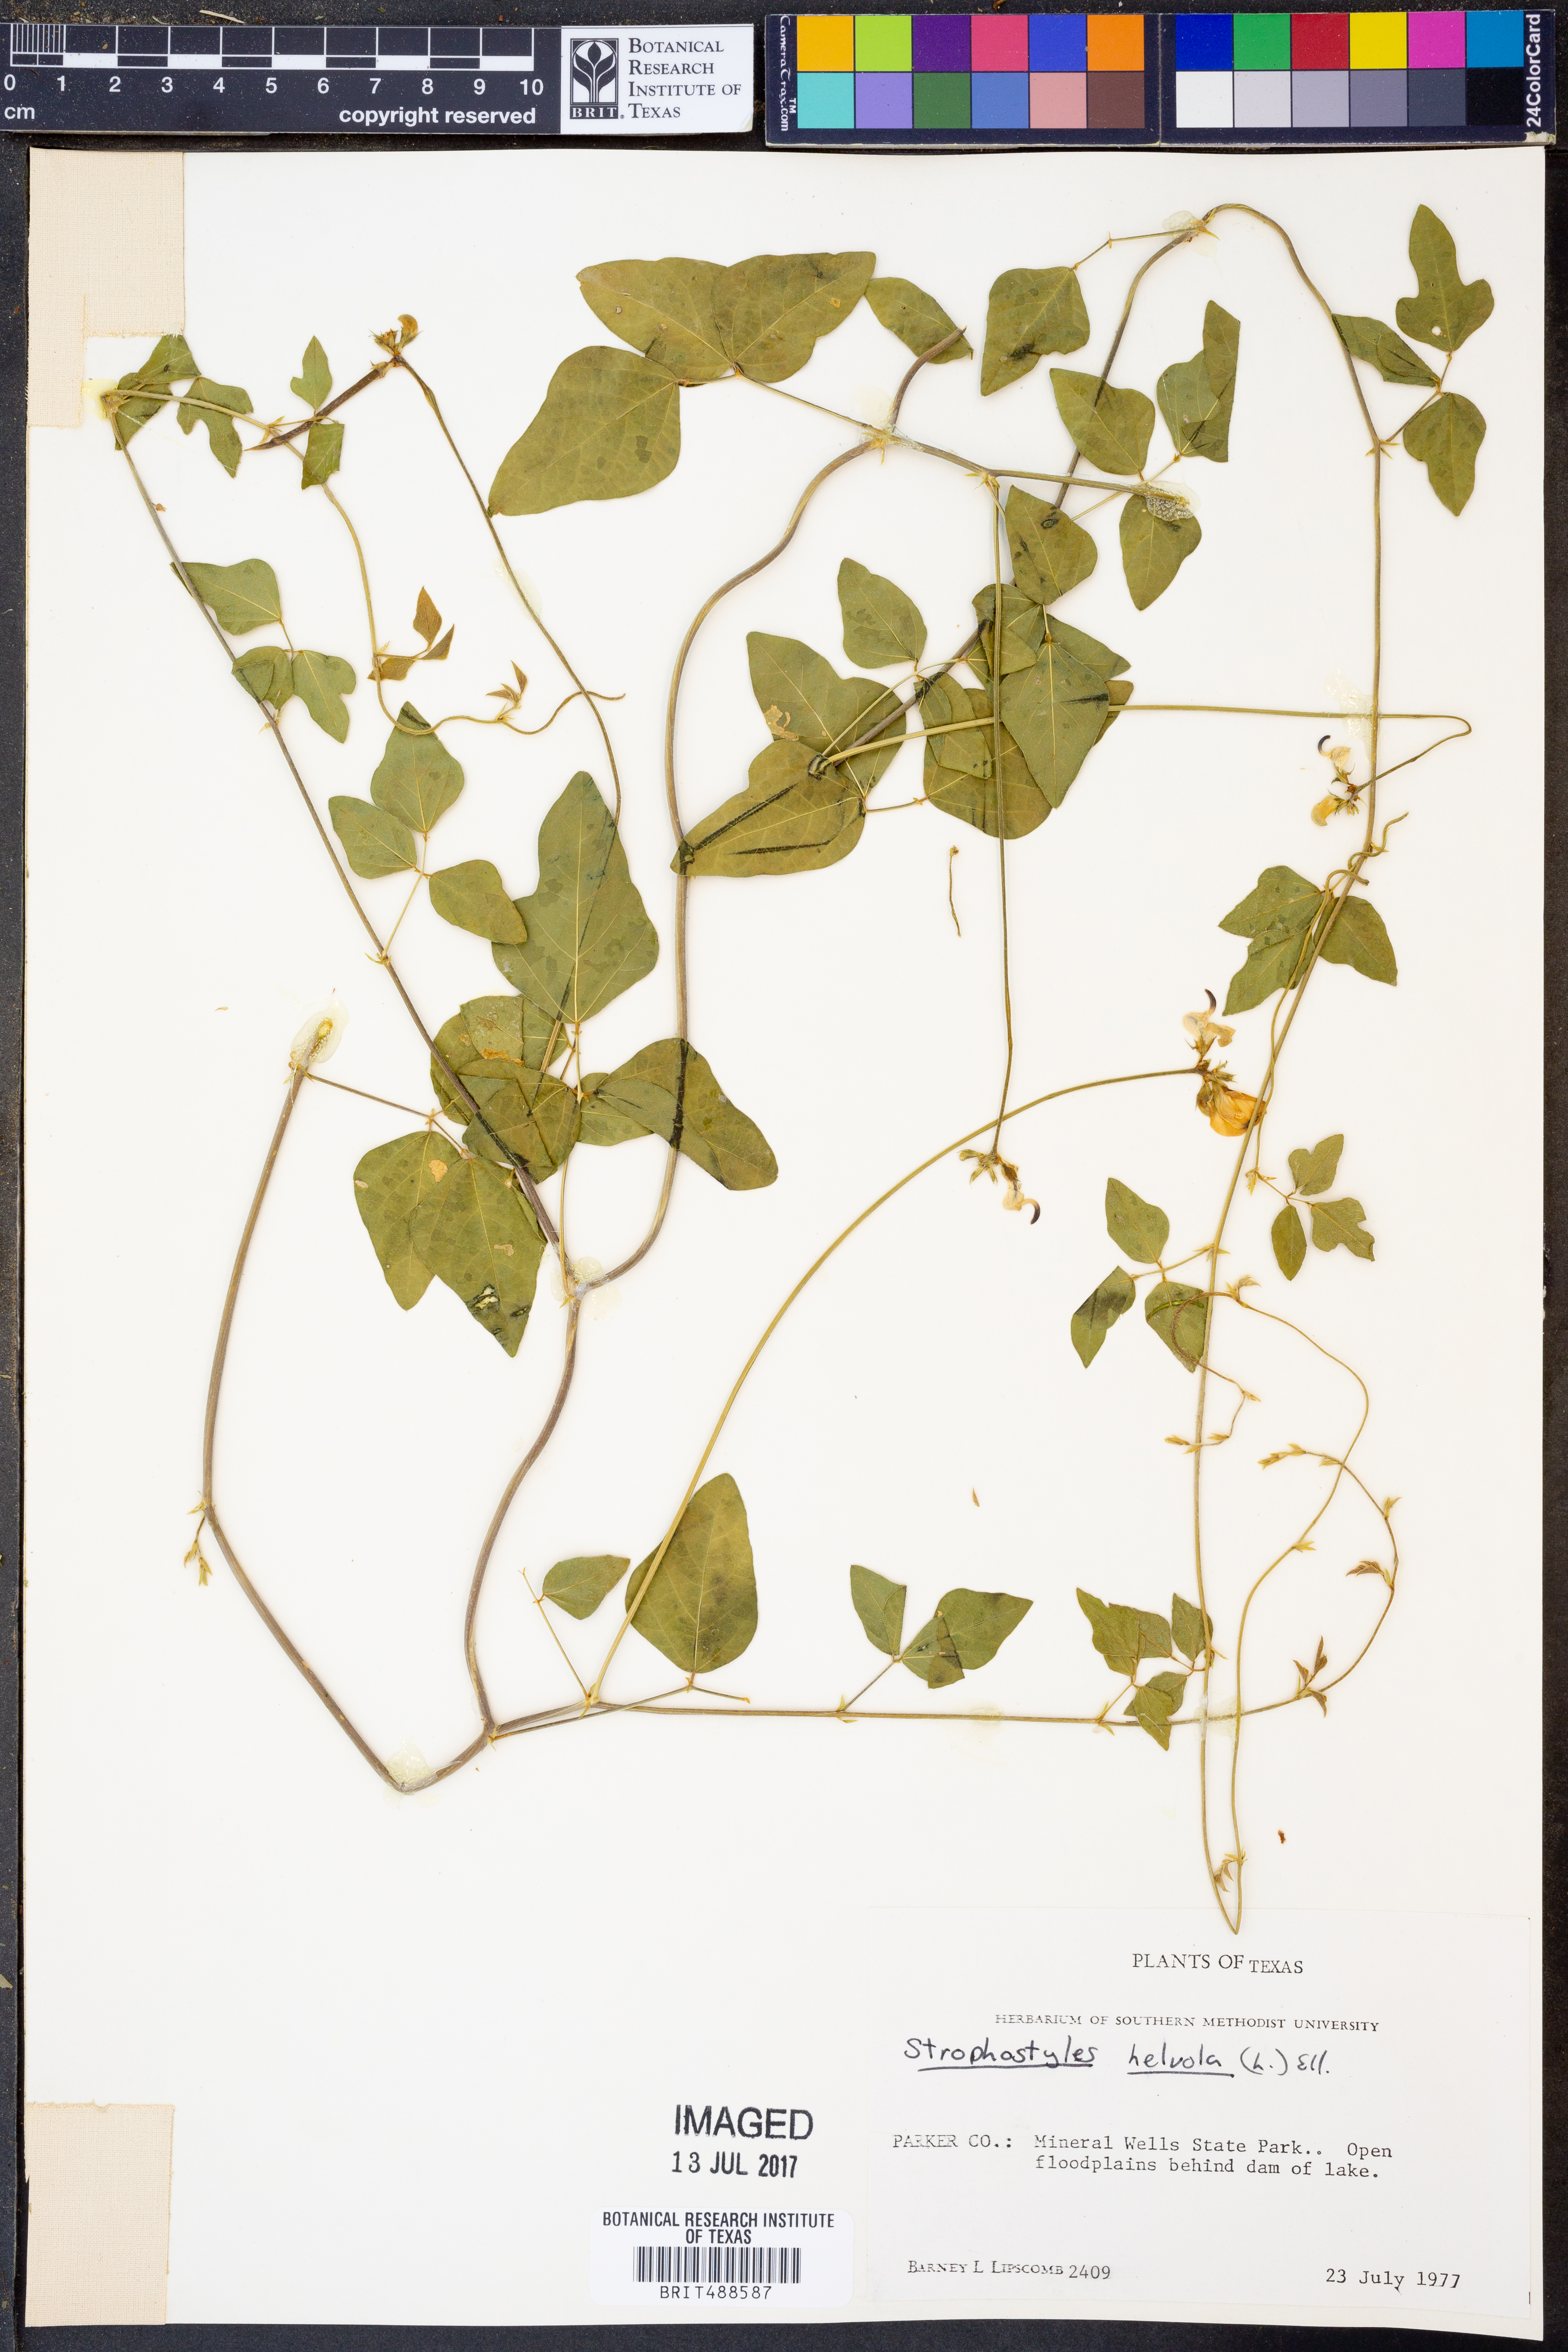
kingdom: Plantae
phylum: Tracheophyta
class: Magnoliopsida
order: Fabales
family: Fabaceae
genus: Strophostyles
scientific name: Strophostyles helvola
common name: Trailing wild bean
